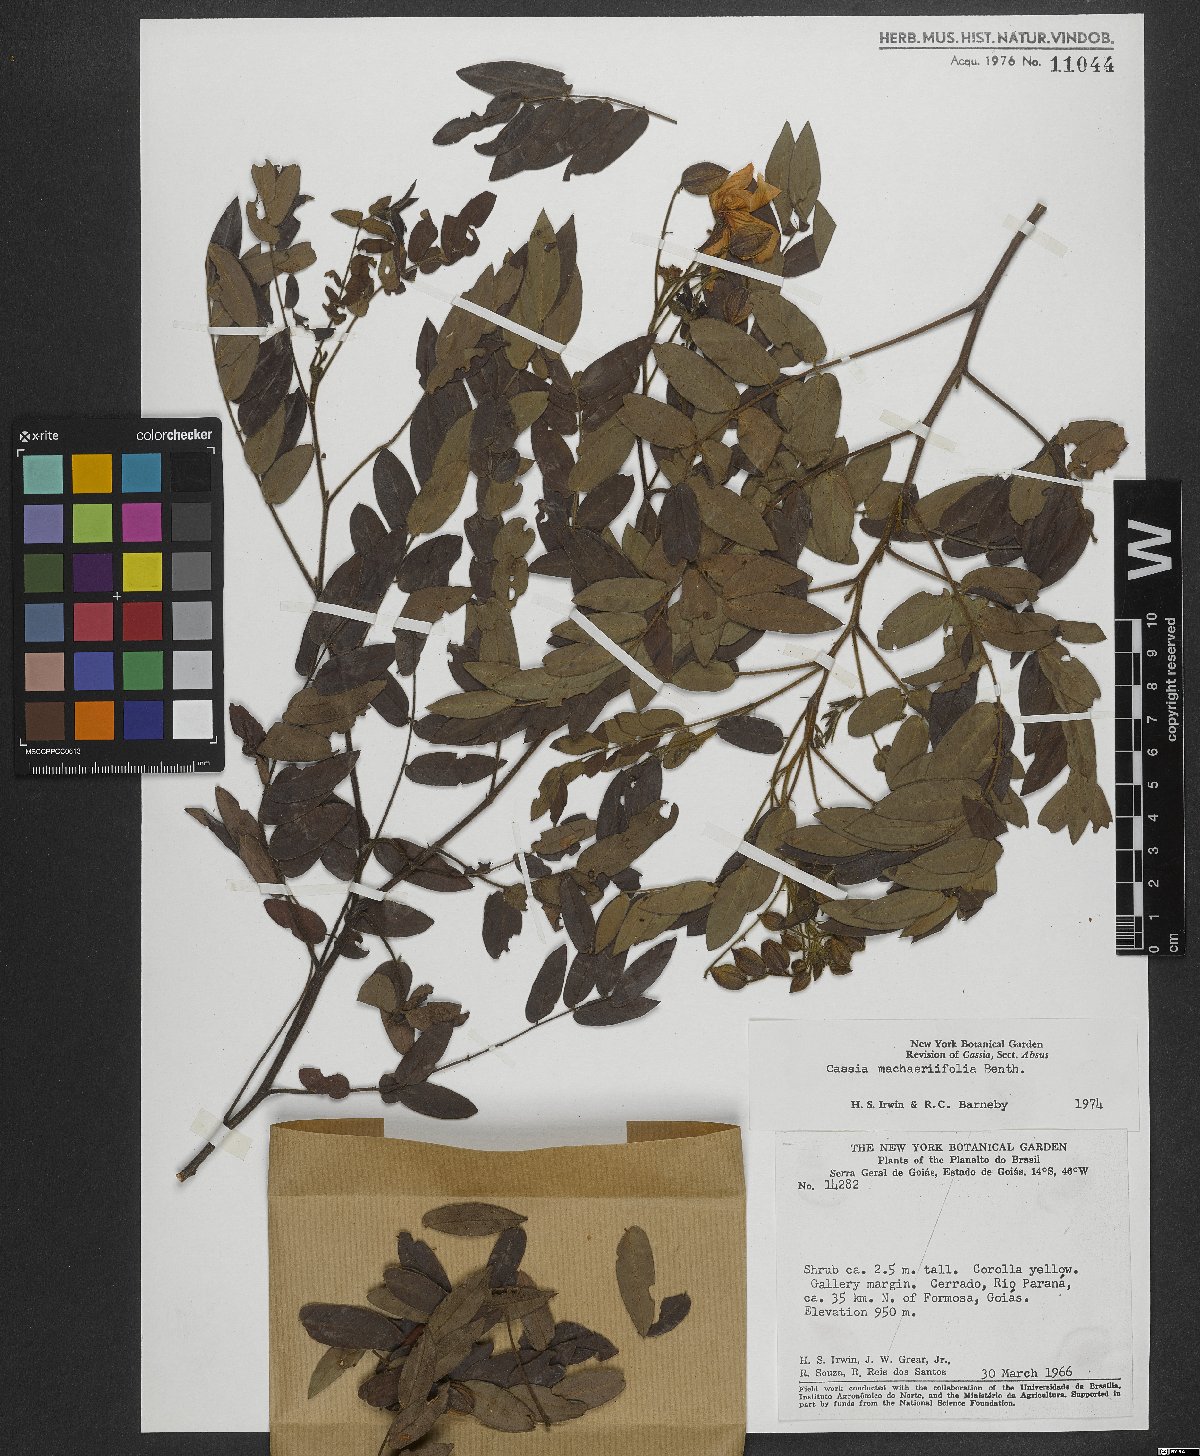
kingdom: Plantae
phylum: Tracheophyta
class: Magnoliopsida
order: Fabales
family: Fabaceae
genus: Chamaecrista
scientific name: Chamaecrista machaeriifolia
